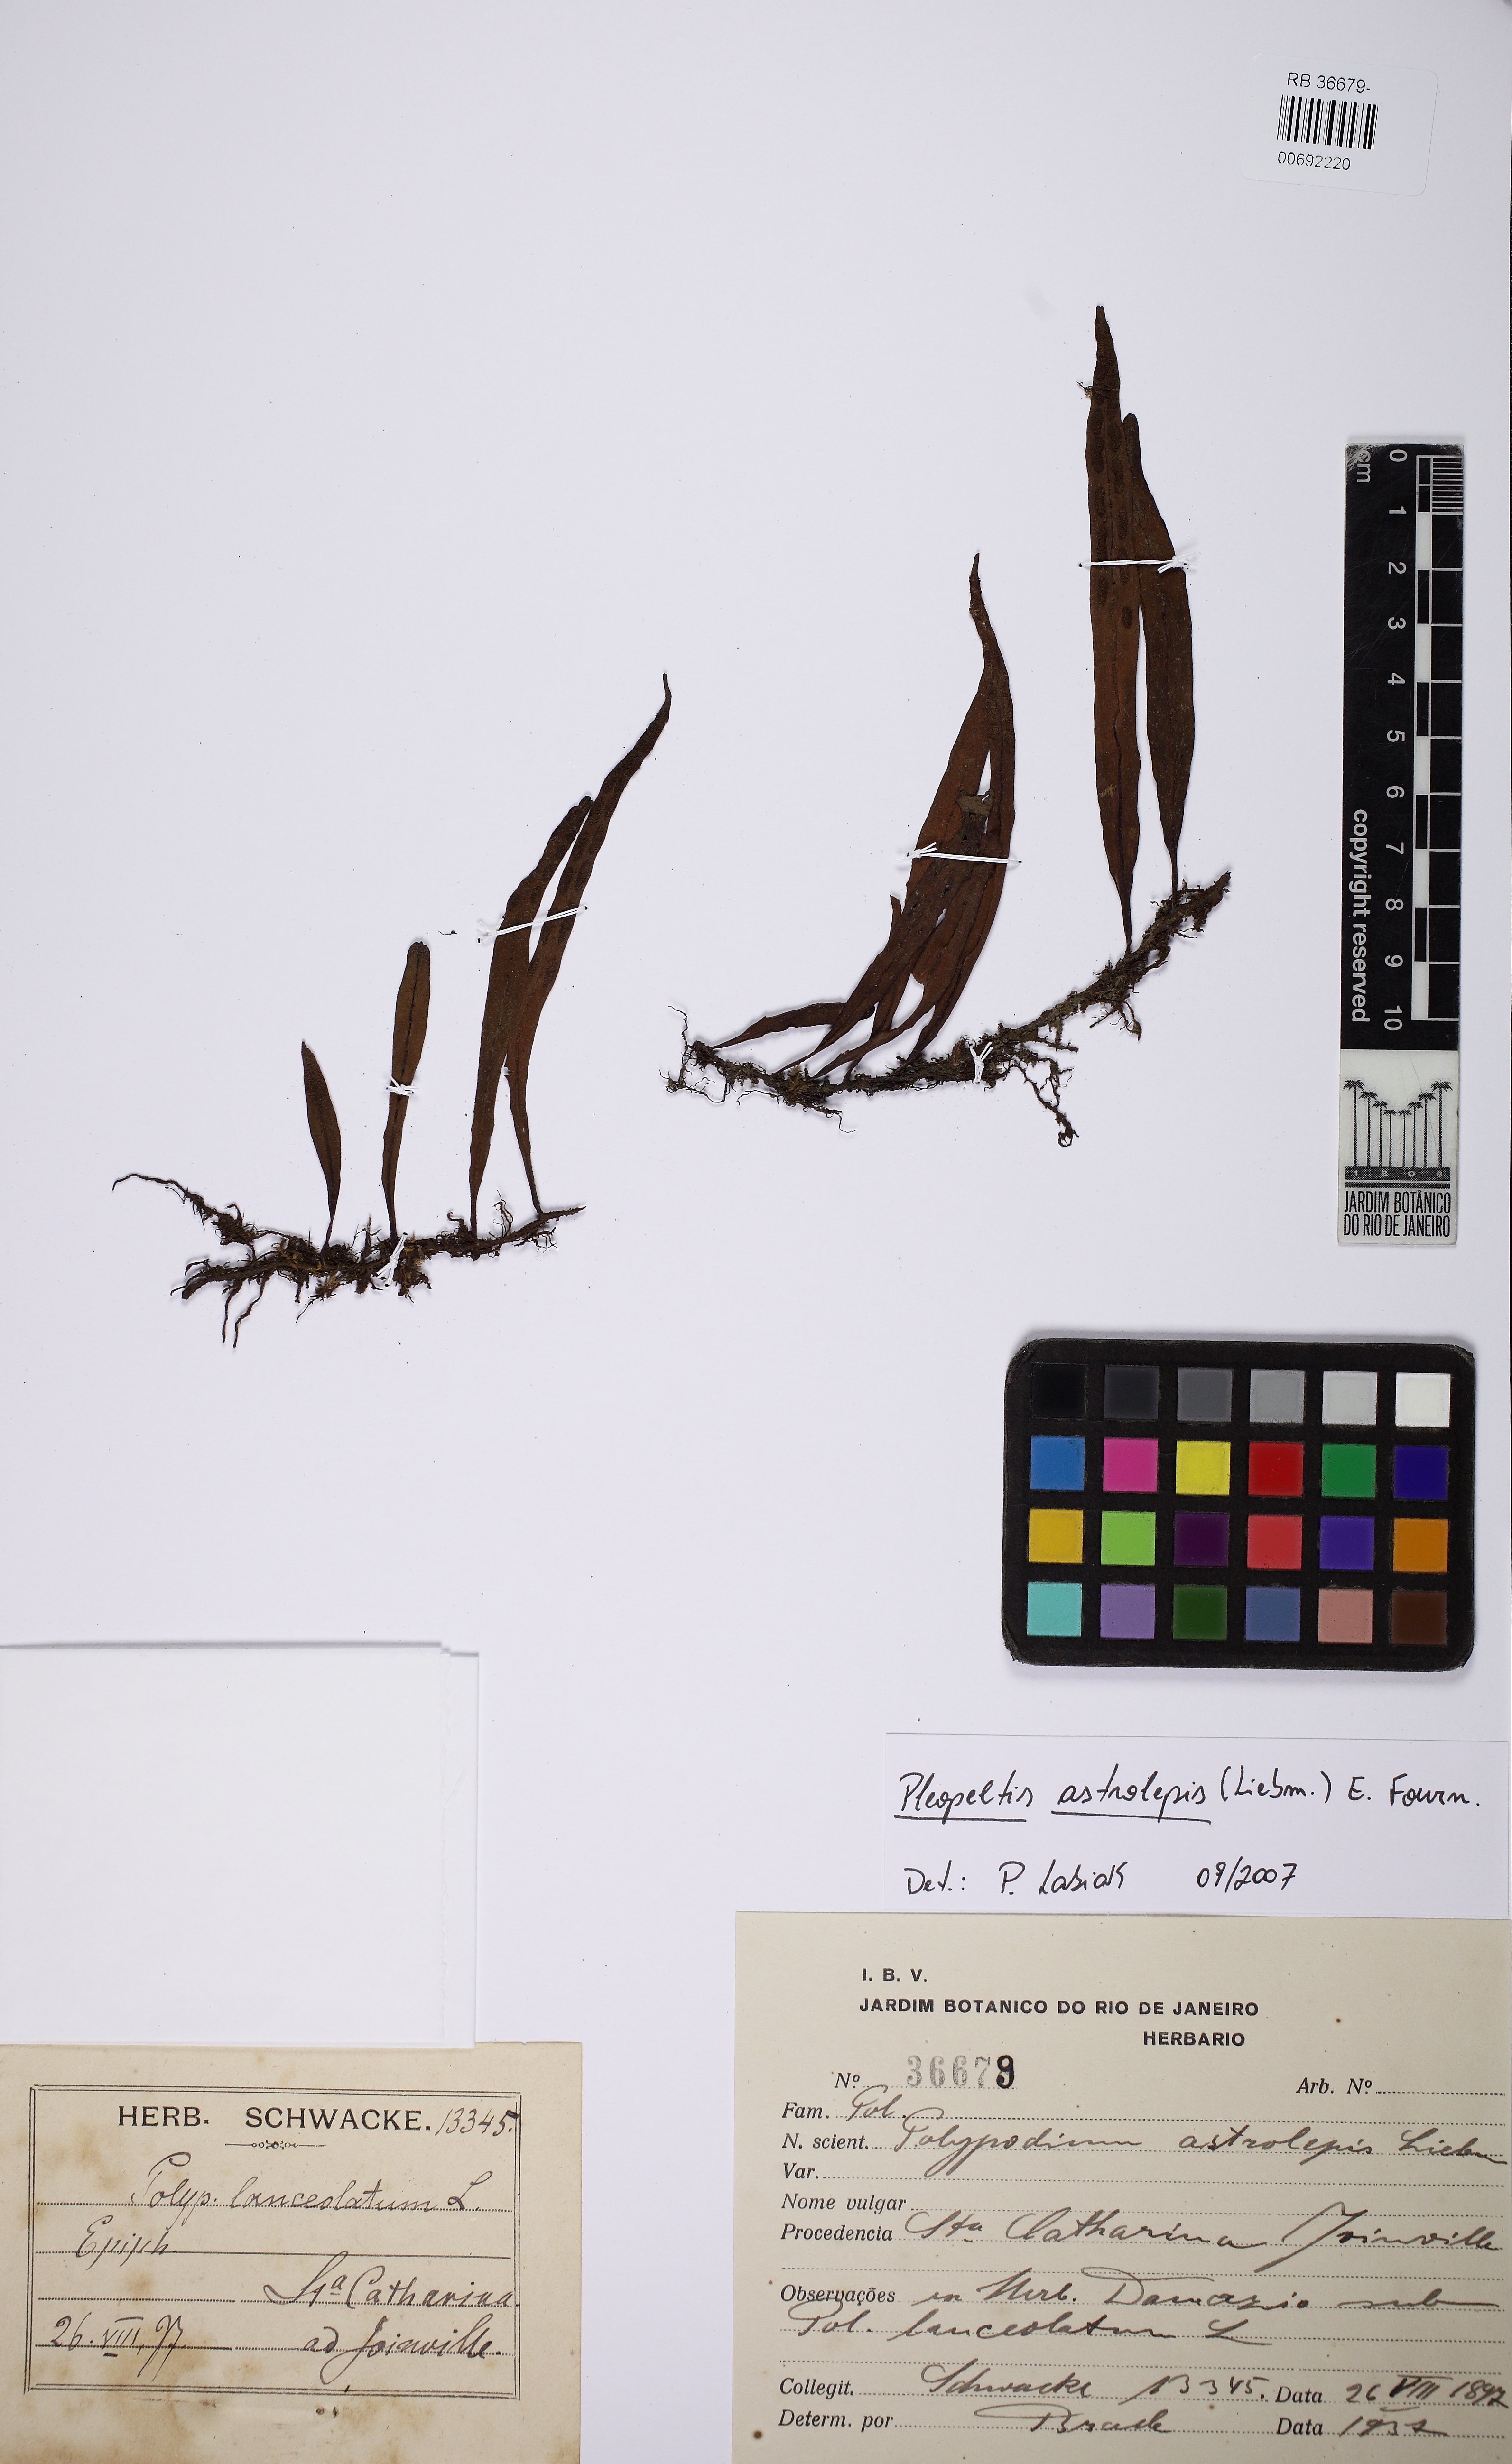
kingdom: Plantae
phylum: Tracheophyta
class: Polypodiopsida
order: Polypodiales
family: Polypodiaceae
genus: Pleopeltis
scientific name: Pleopeltis astrolepis
